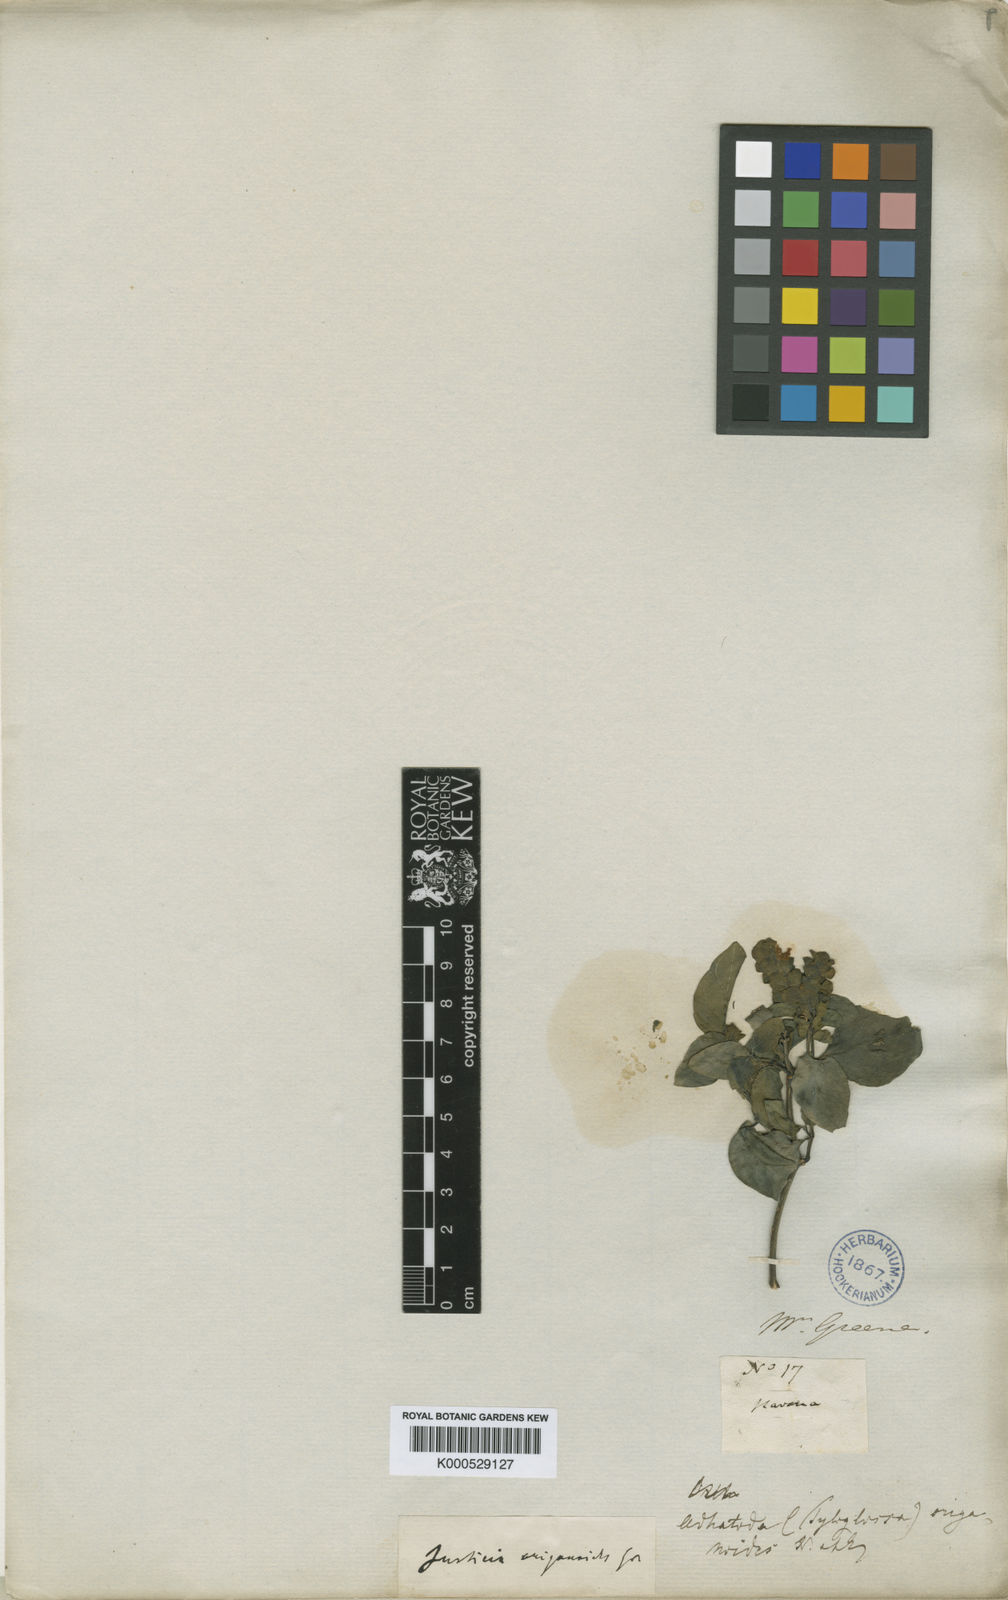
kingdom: Plantae
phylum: Tracheophyta
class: Magnoliopsida
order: Lamiales
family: Acanthaceae
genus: Justicia
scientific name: Justicia alainii
